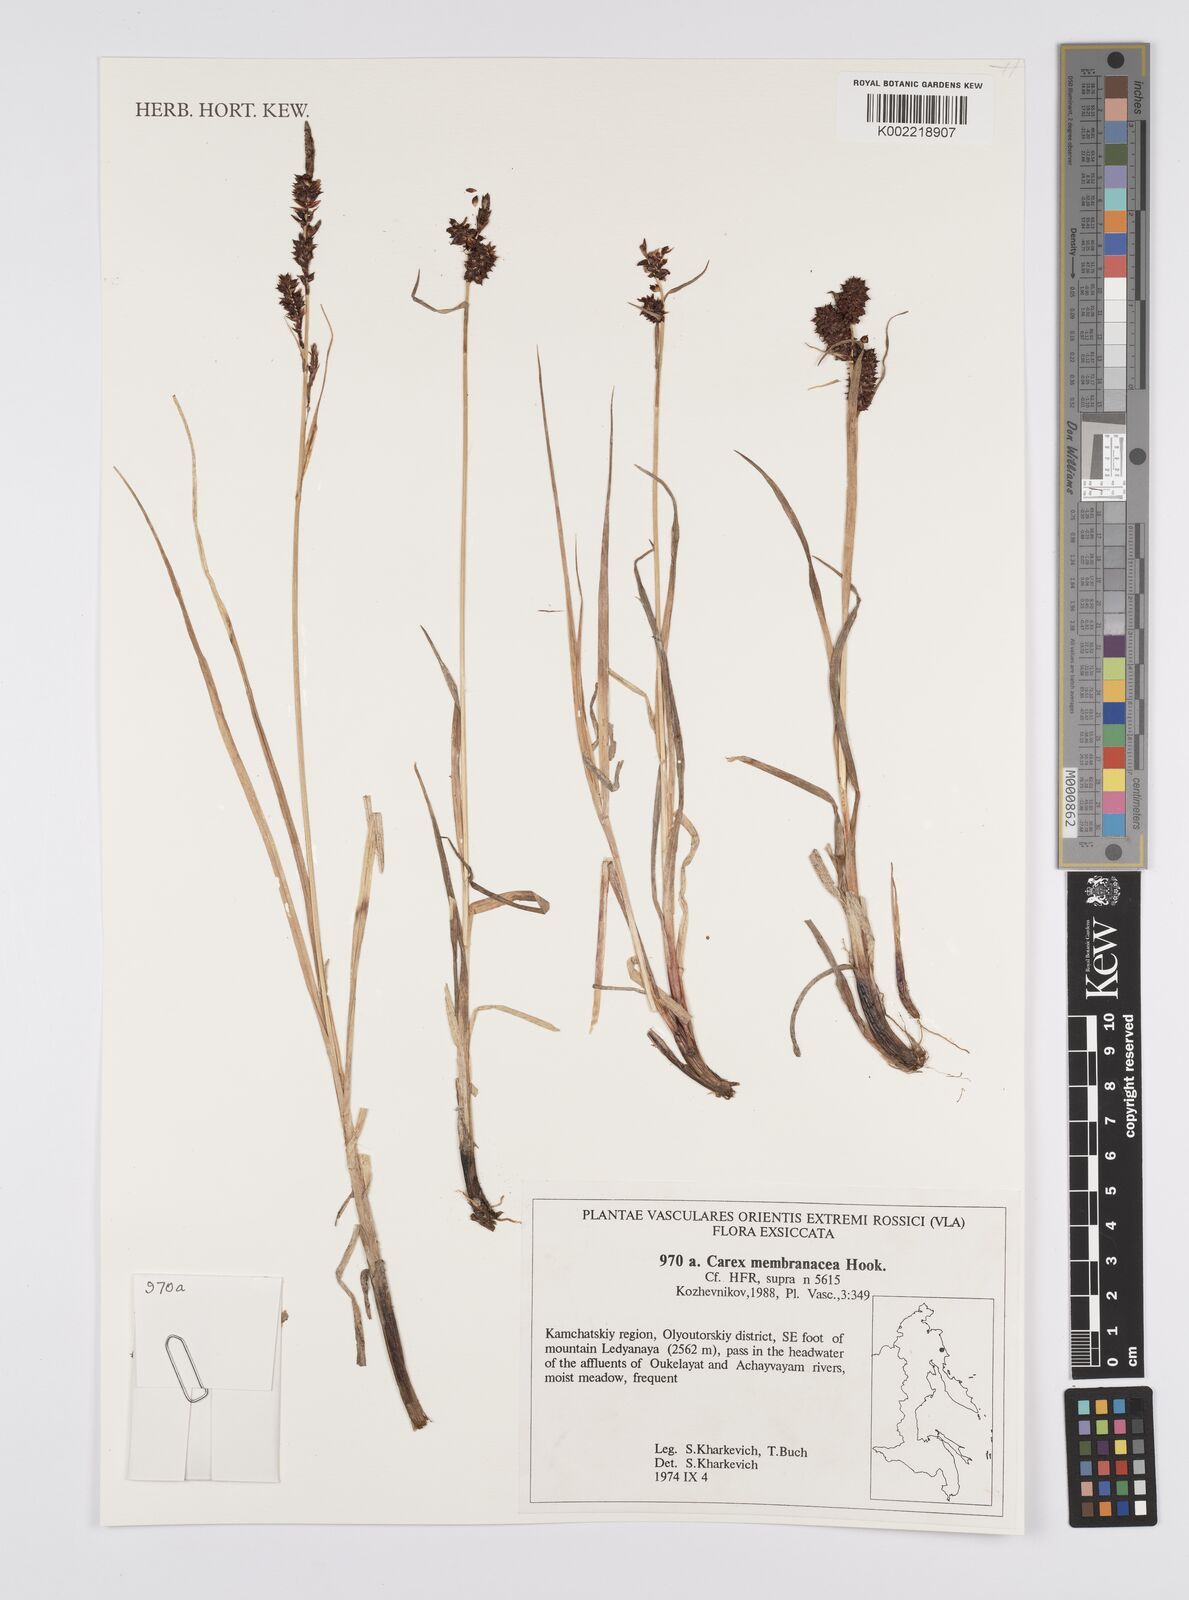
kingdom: Plantae
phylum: Tracheophyta
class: Liliopsida
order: Poales
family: Cyperaceae
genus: Carex
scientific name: Carex vesicaria
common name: Bladder-sedge
